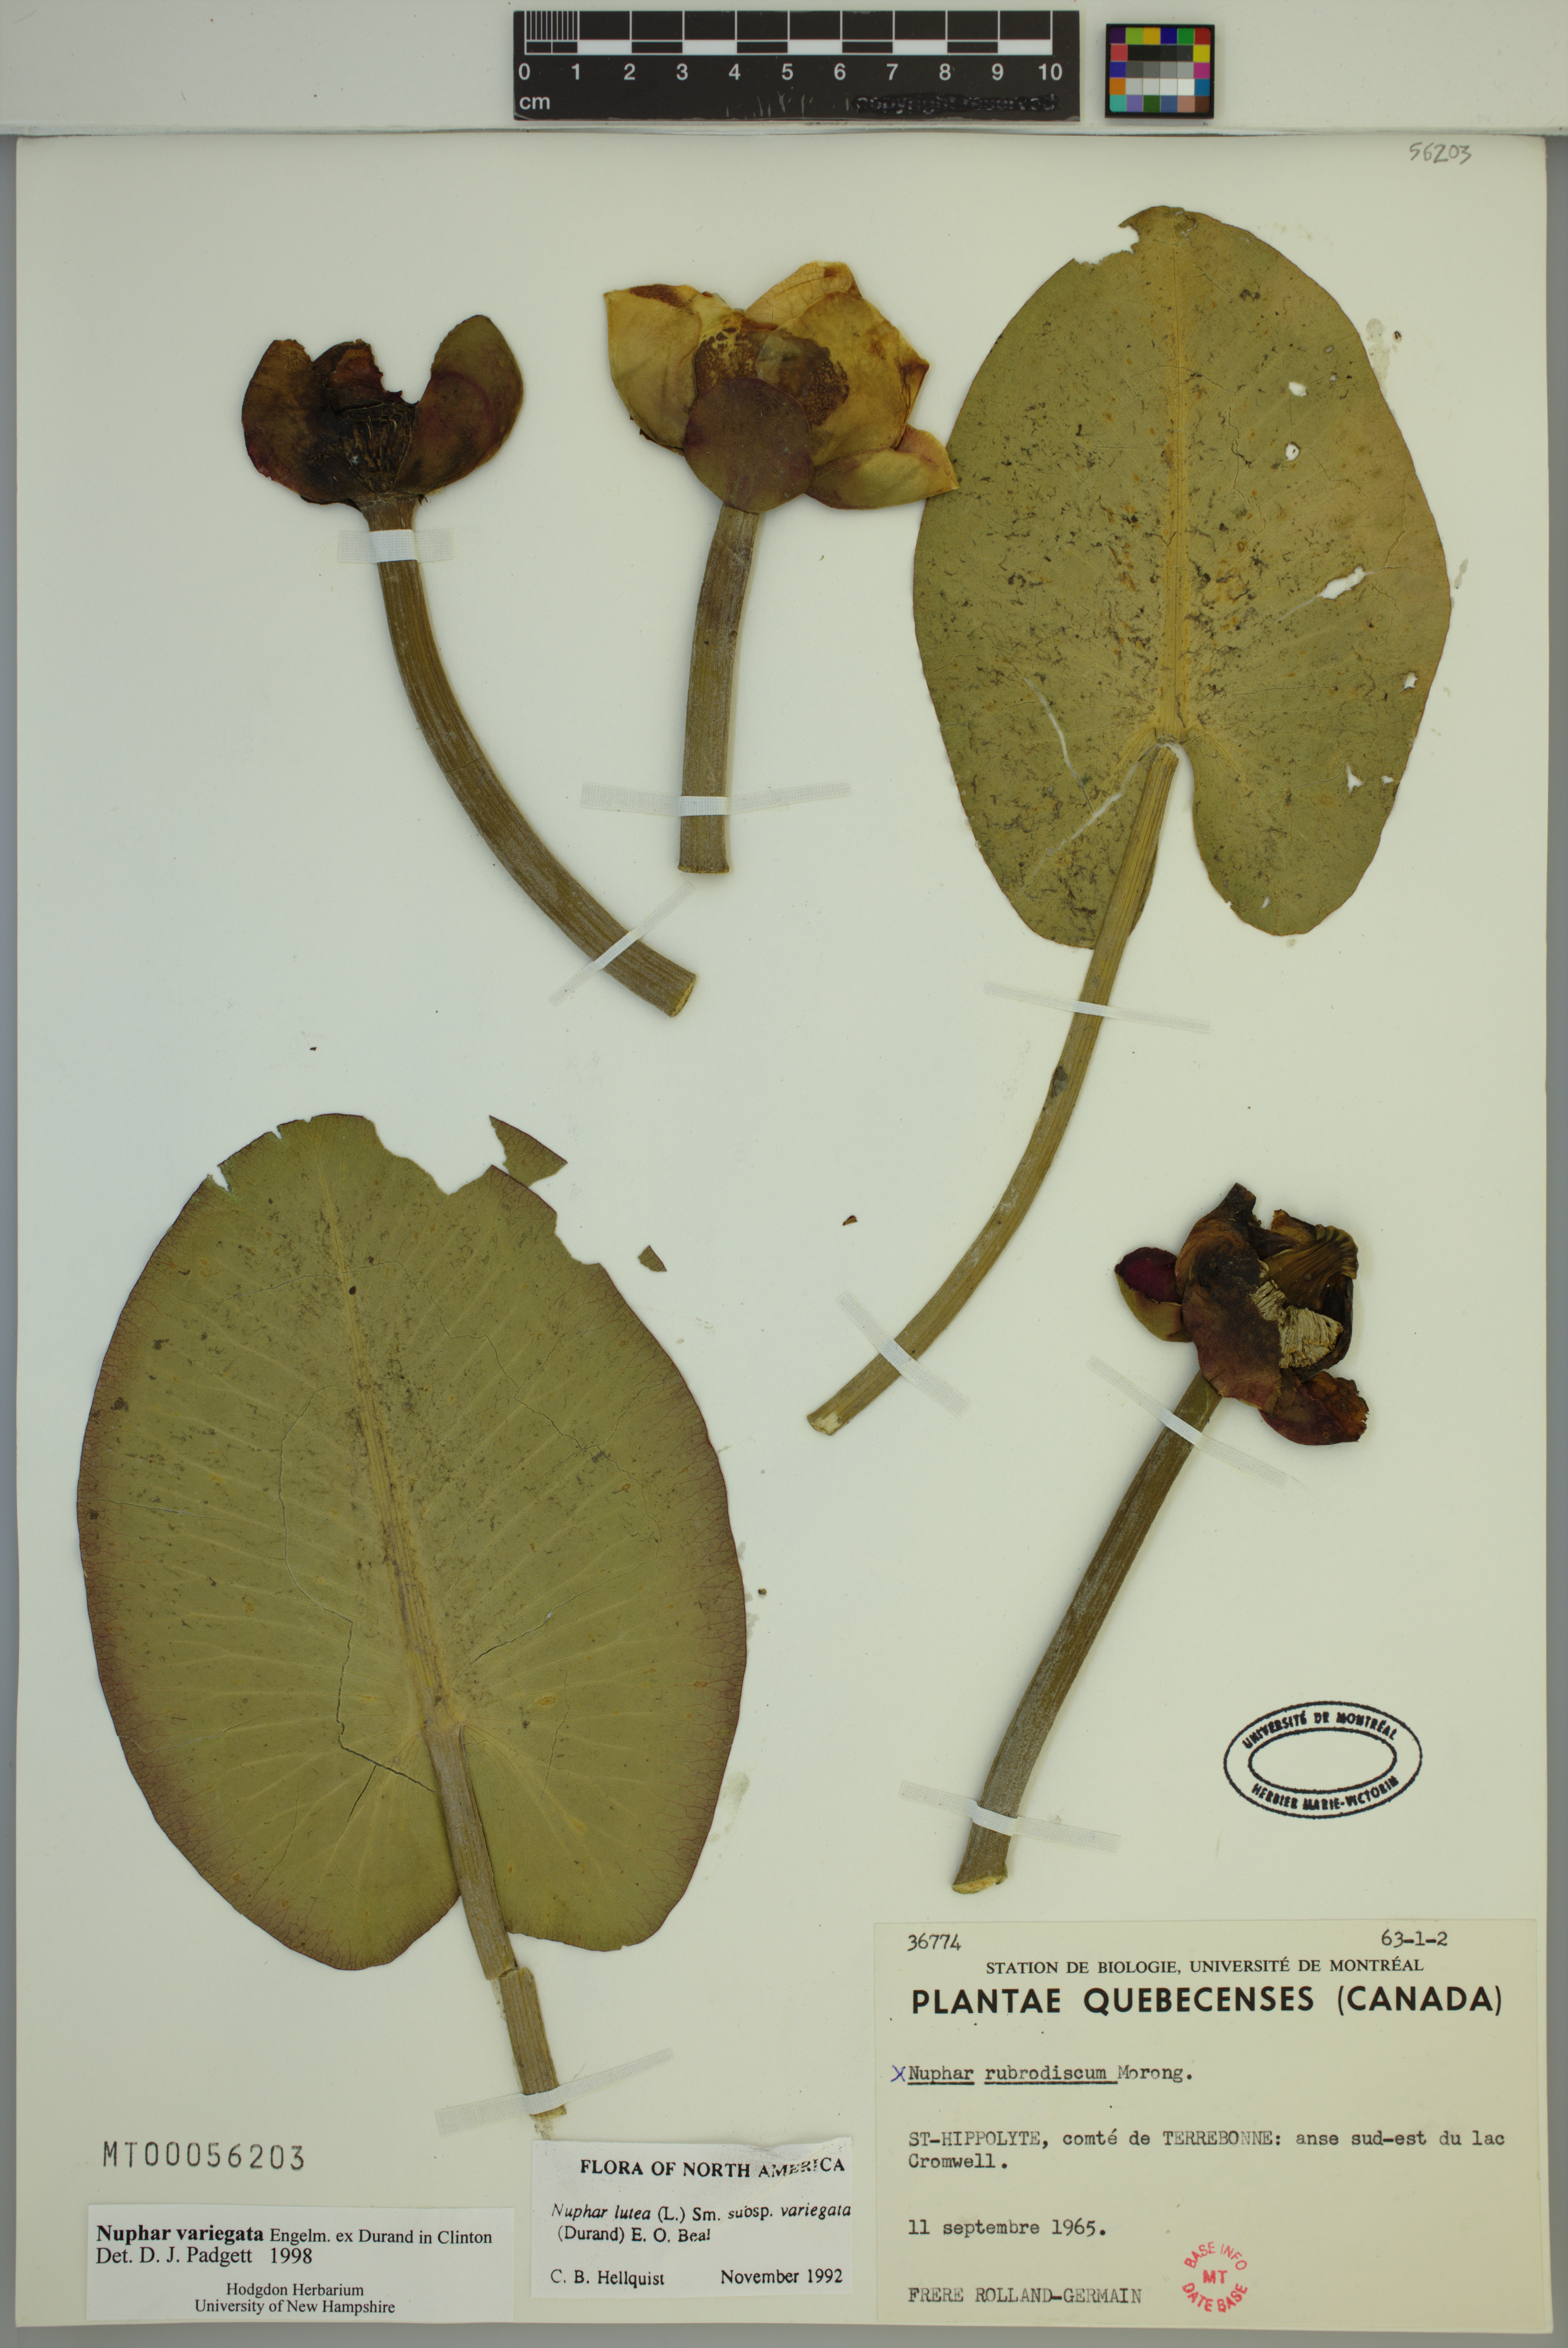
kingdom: Plantae
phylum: Tracheophyta
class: Magnoliopsida
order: Nymphaeales
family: Nymphaeaceae
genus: Nuphar
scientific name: Nuphar variegata
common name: Beaver-root
